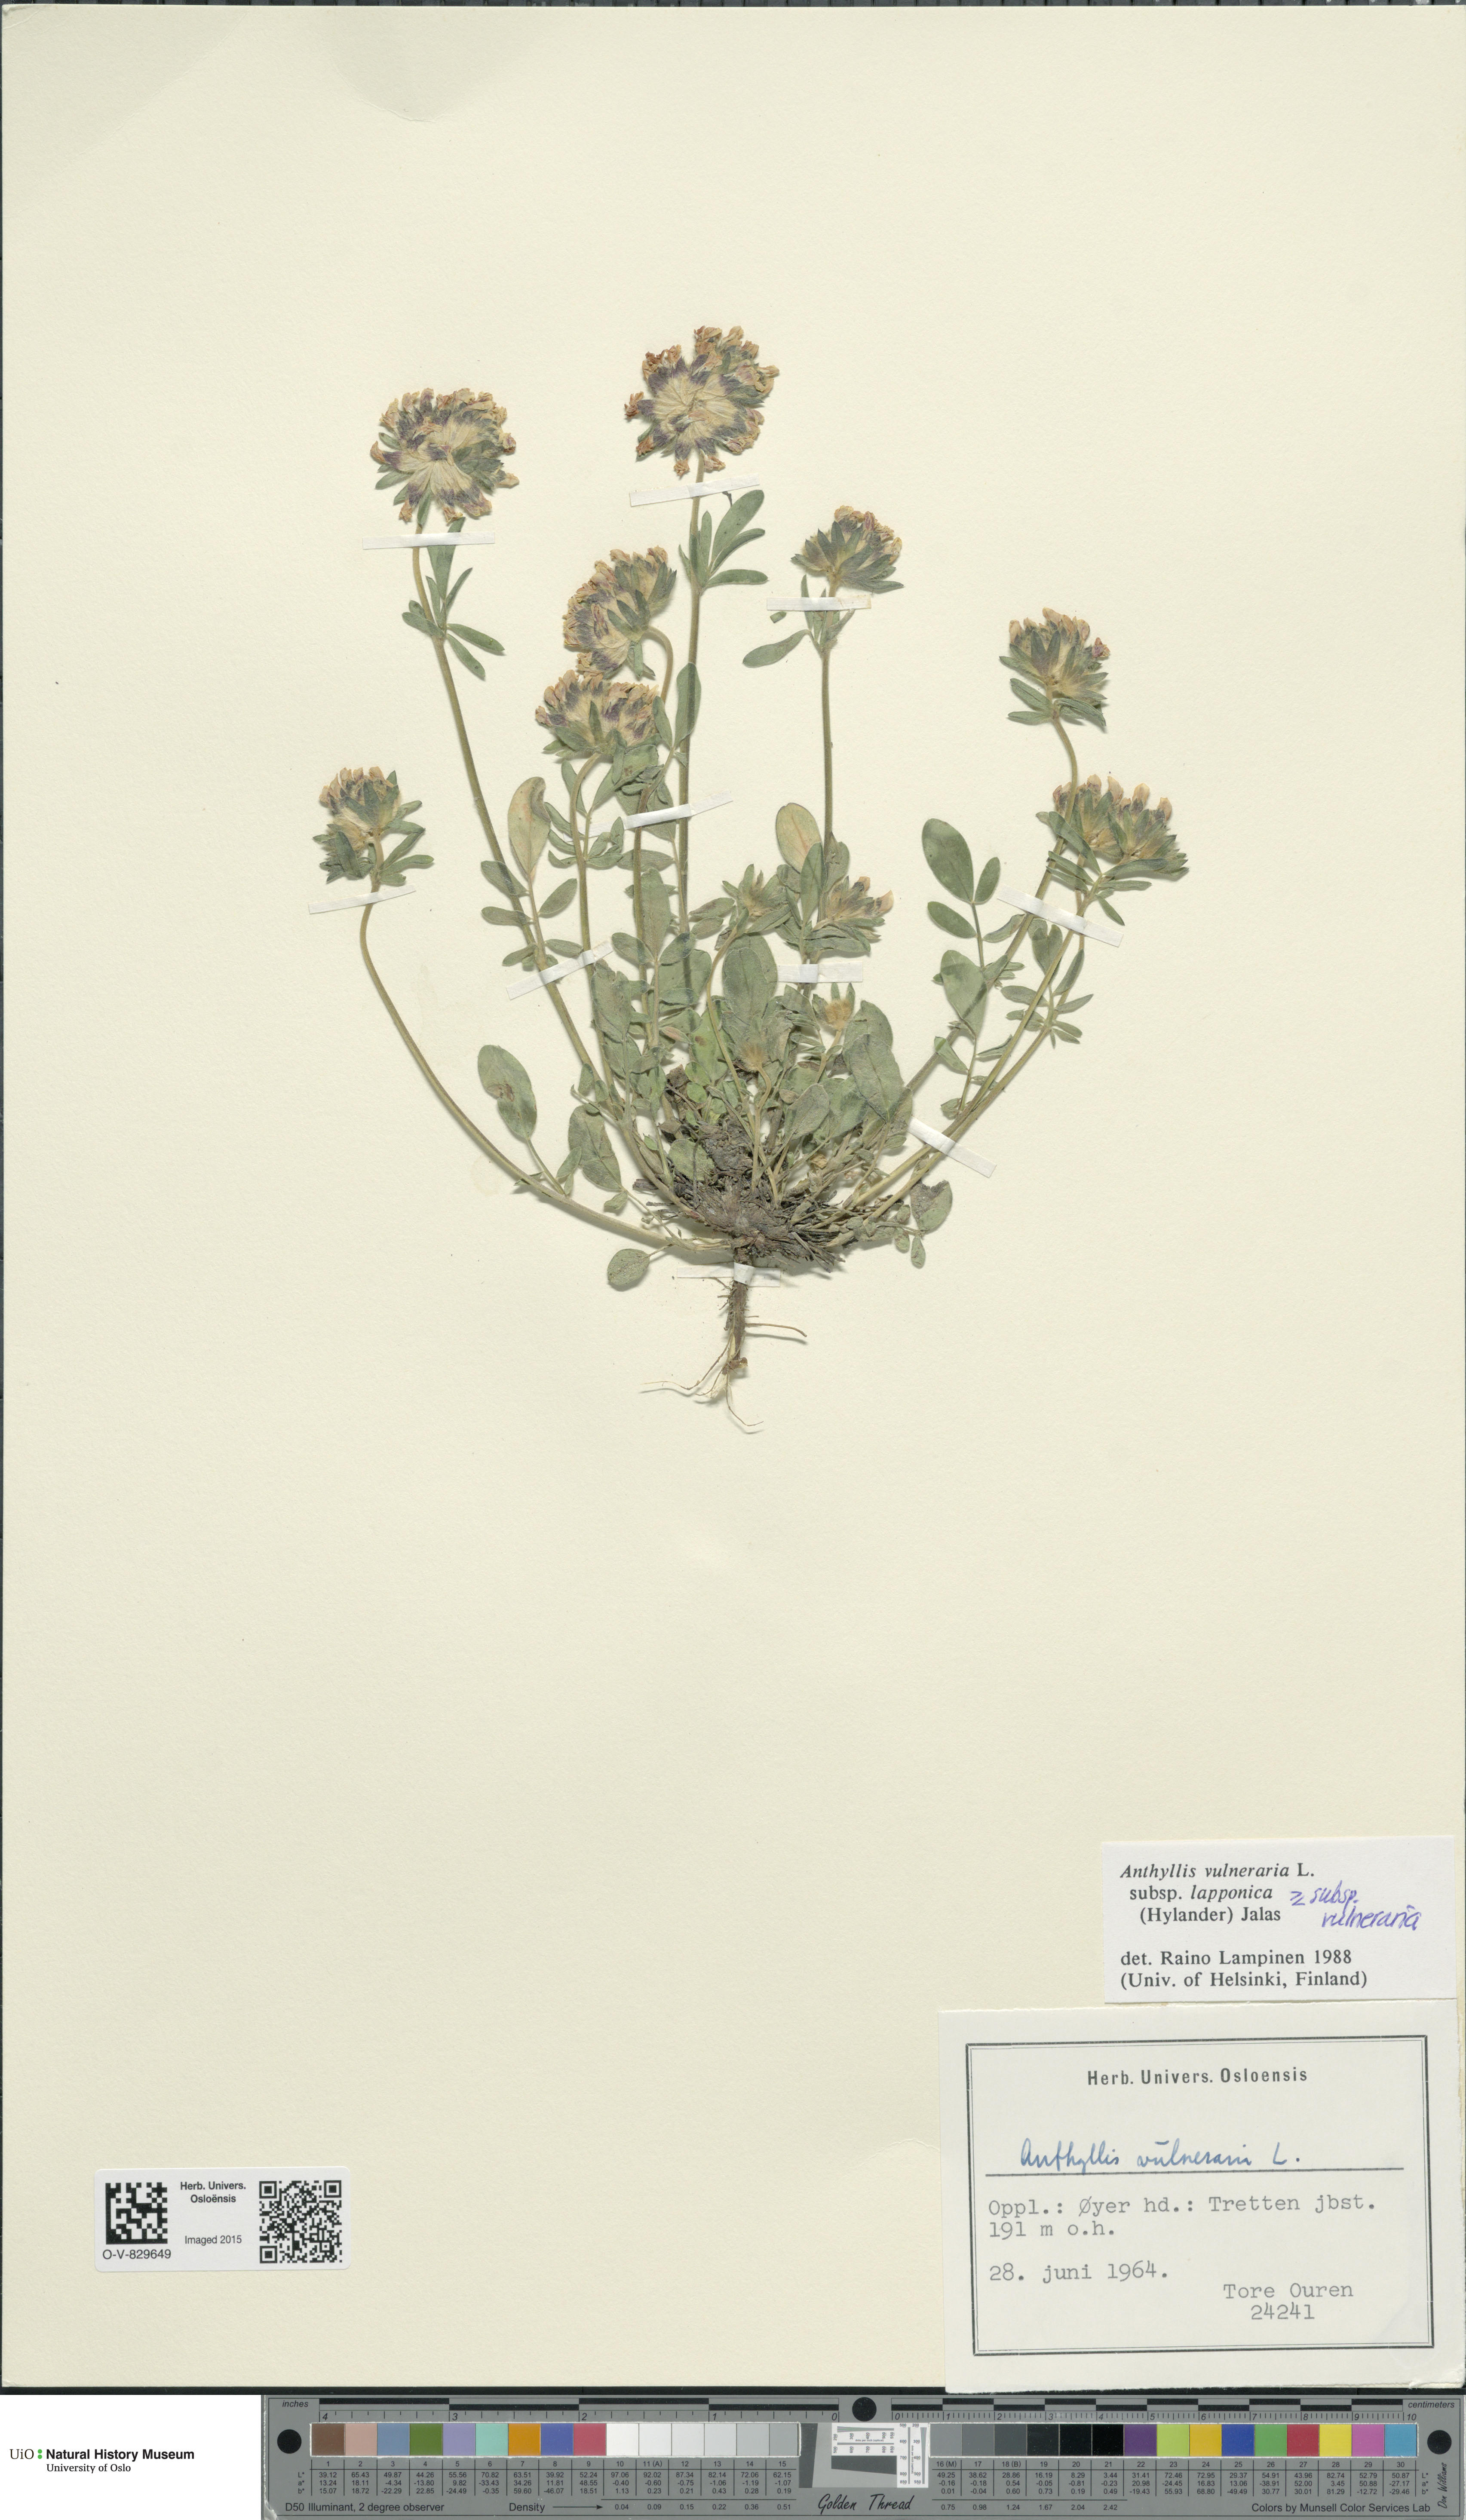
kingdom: Plantae
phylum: Tracheophyta
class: Magnoliopsida
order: Fabales
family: Fabaceae
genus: Anthyllis
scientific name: Anthyllis vulneraria
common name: Kidney vetch
